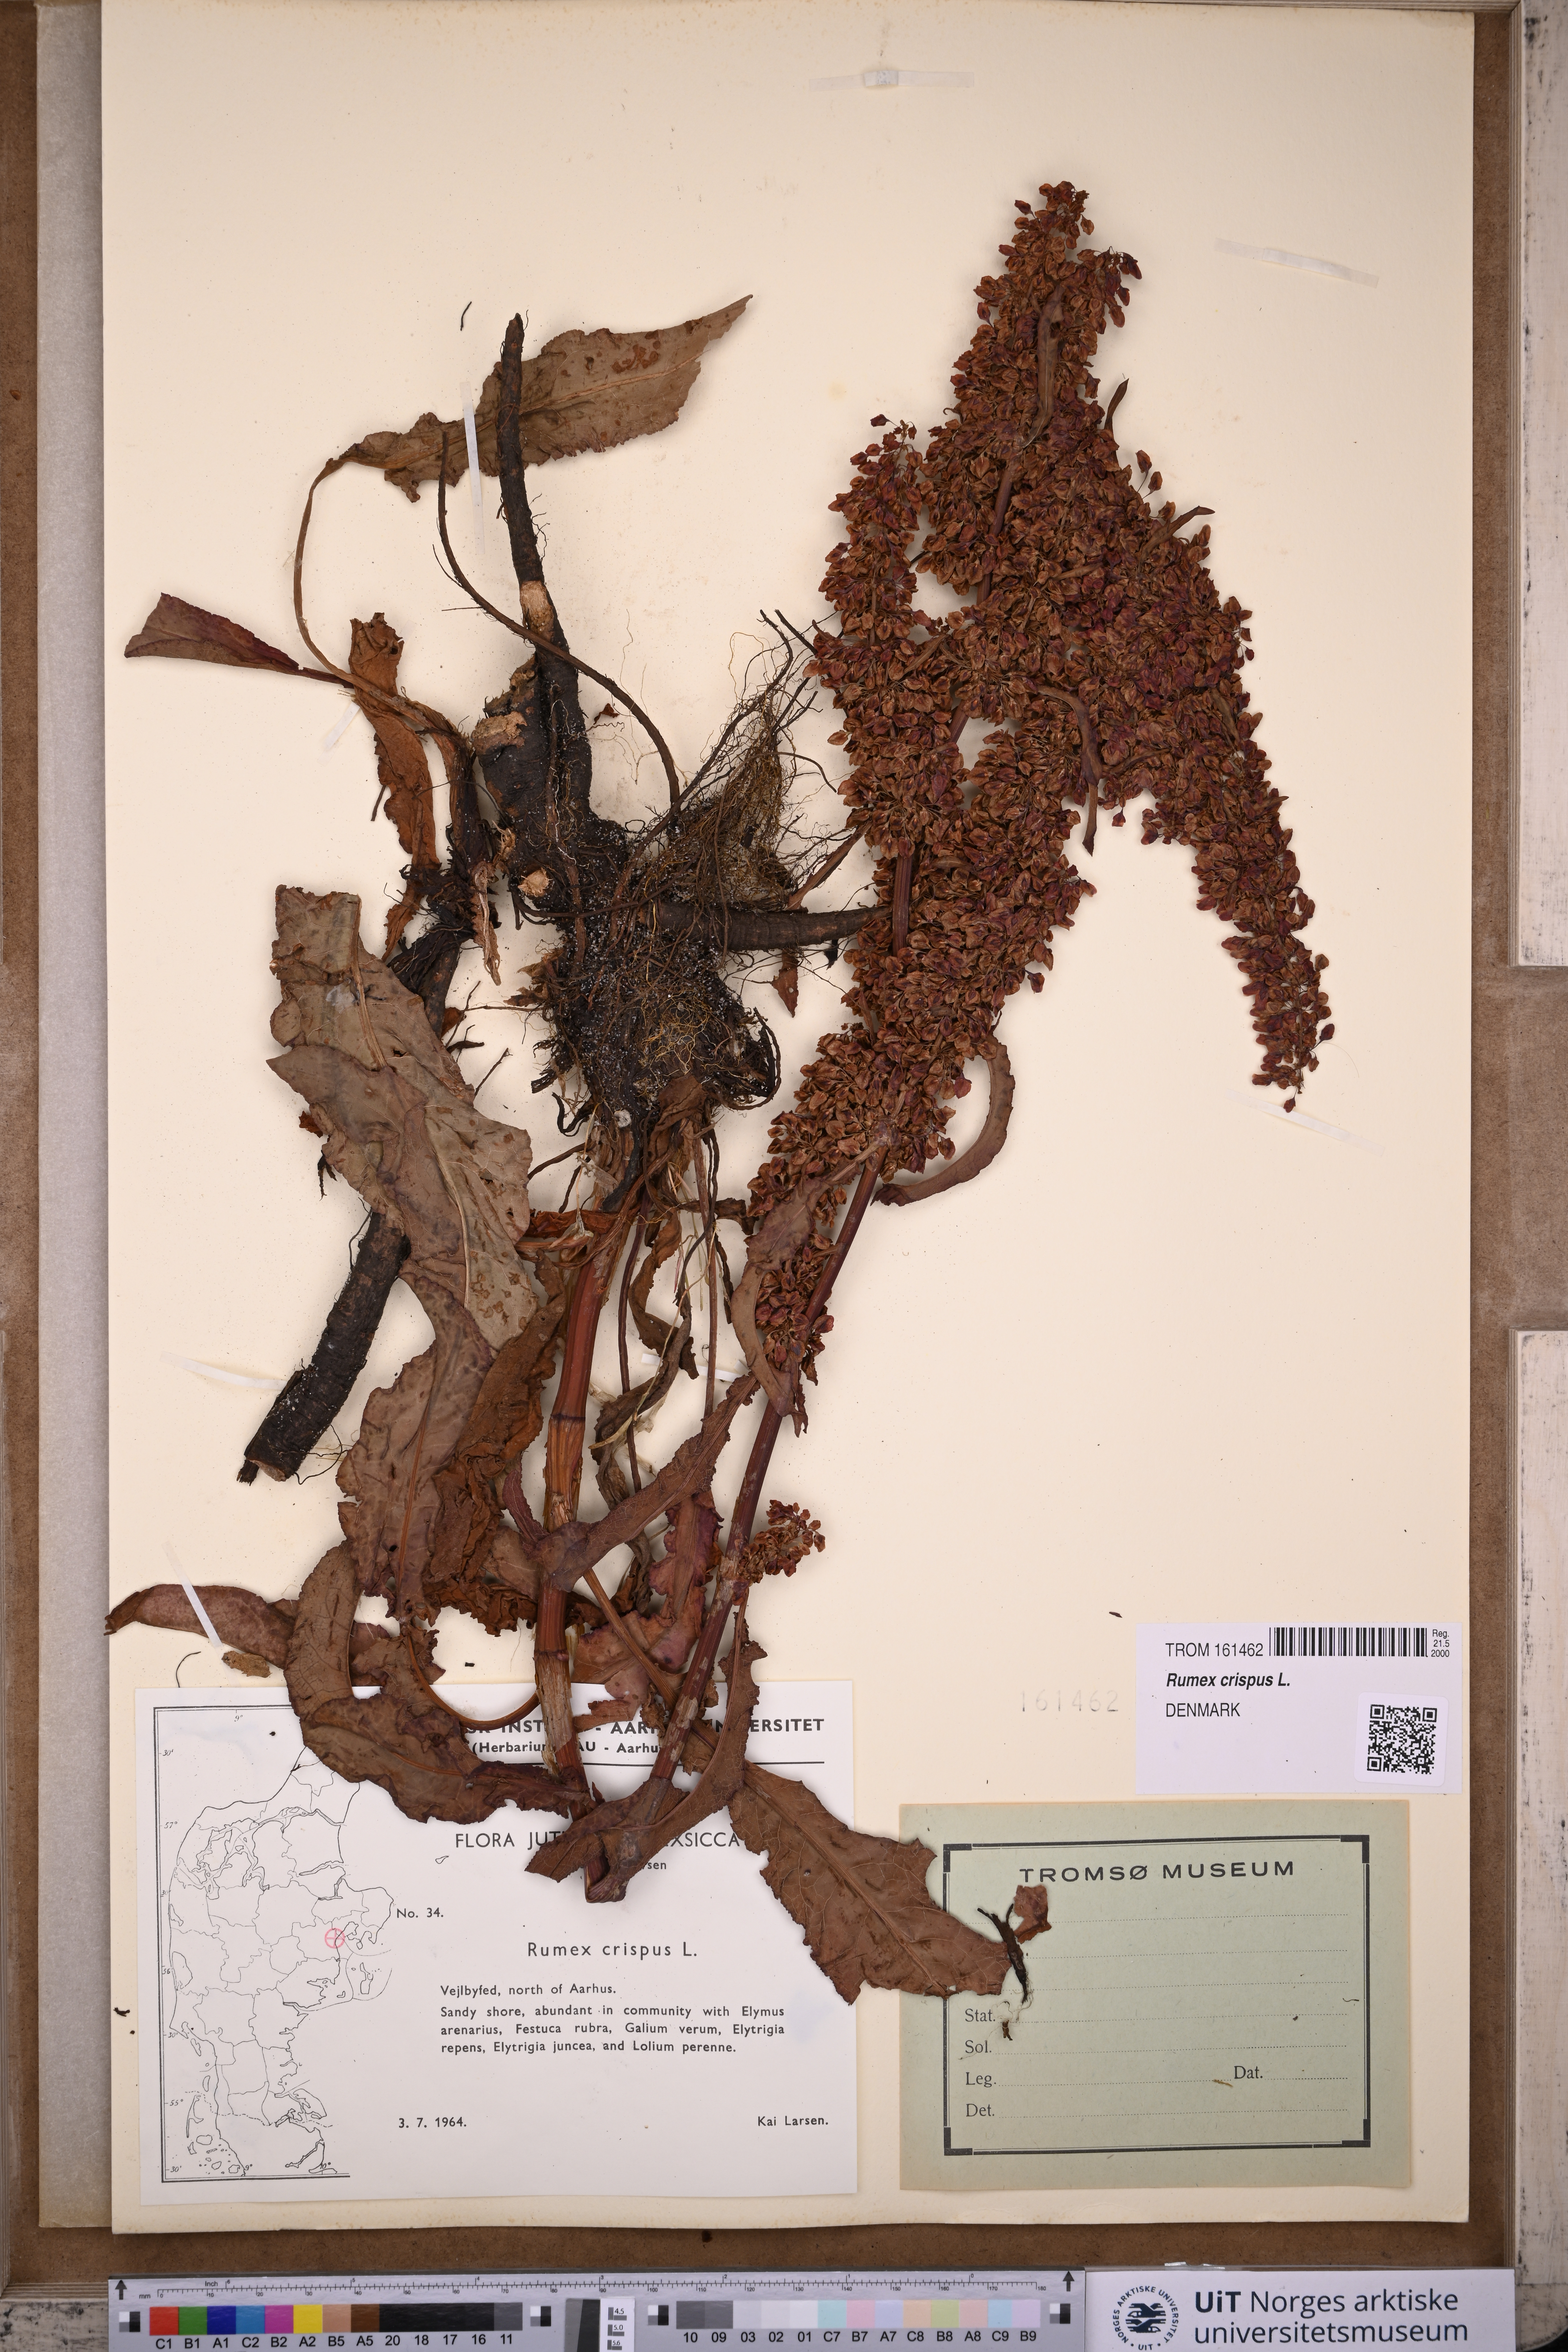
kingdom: Plantae
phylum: Tracheophyta
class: Magnoliopsida
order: Caryophyllales
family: Polygonaceae
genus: Rumex
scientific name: Rumex crispus
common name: Curled dock
